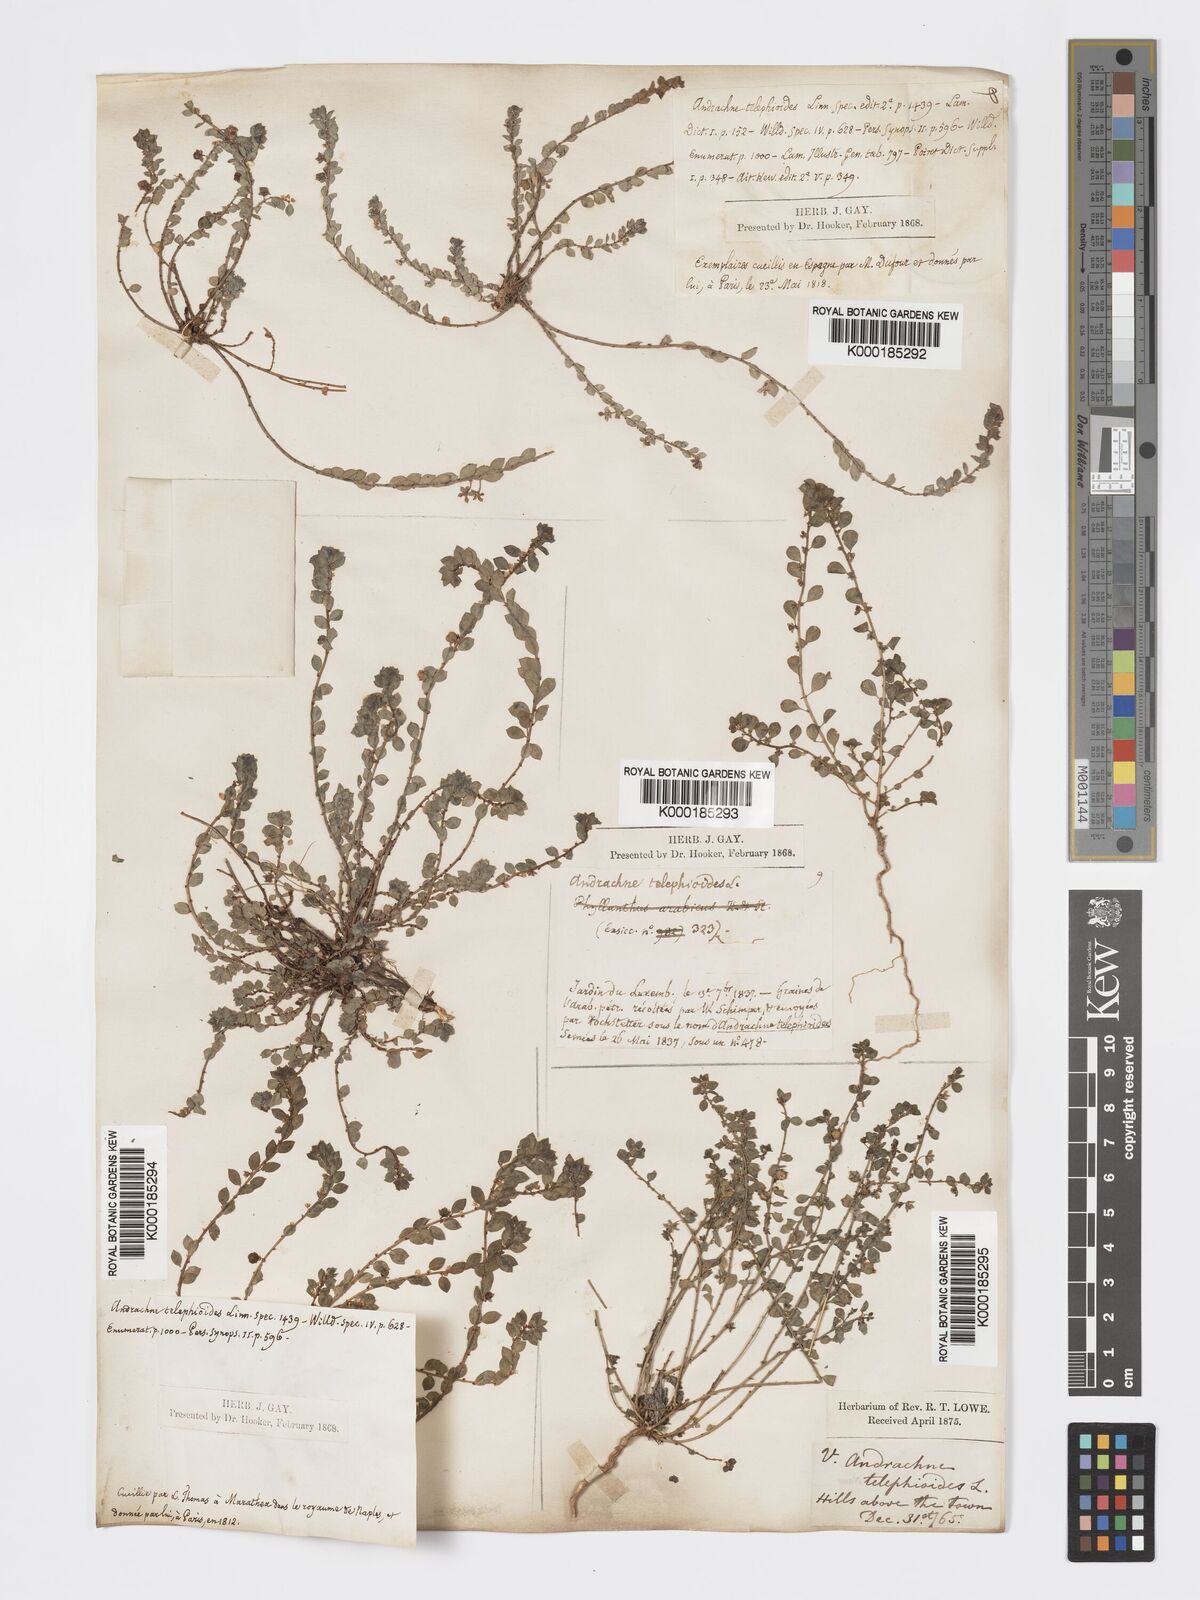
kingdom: Plantae
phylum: Tracheophyta
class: Magnoliopsida
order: Malpighiales
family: Phyllanthaceae
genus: Andrachne
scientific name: Andrachne telephioides
